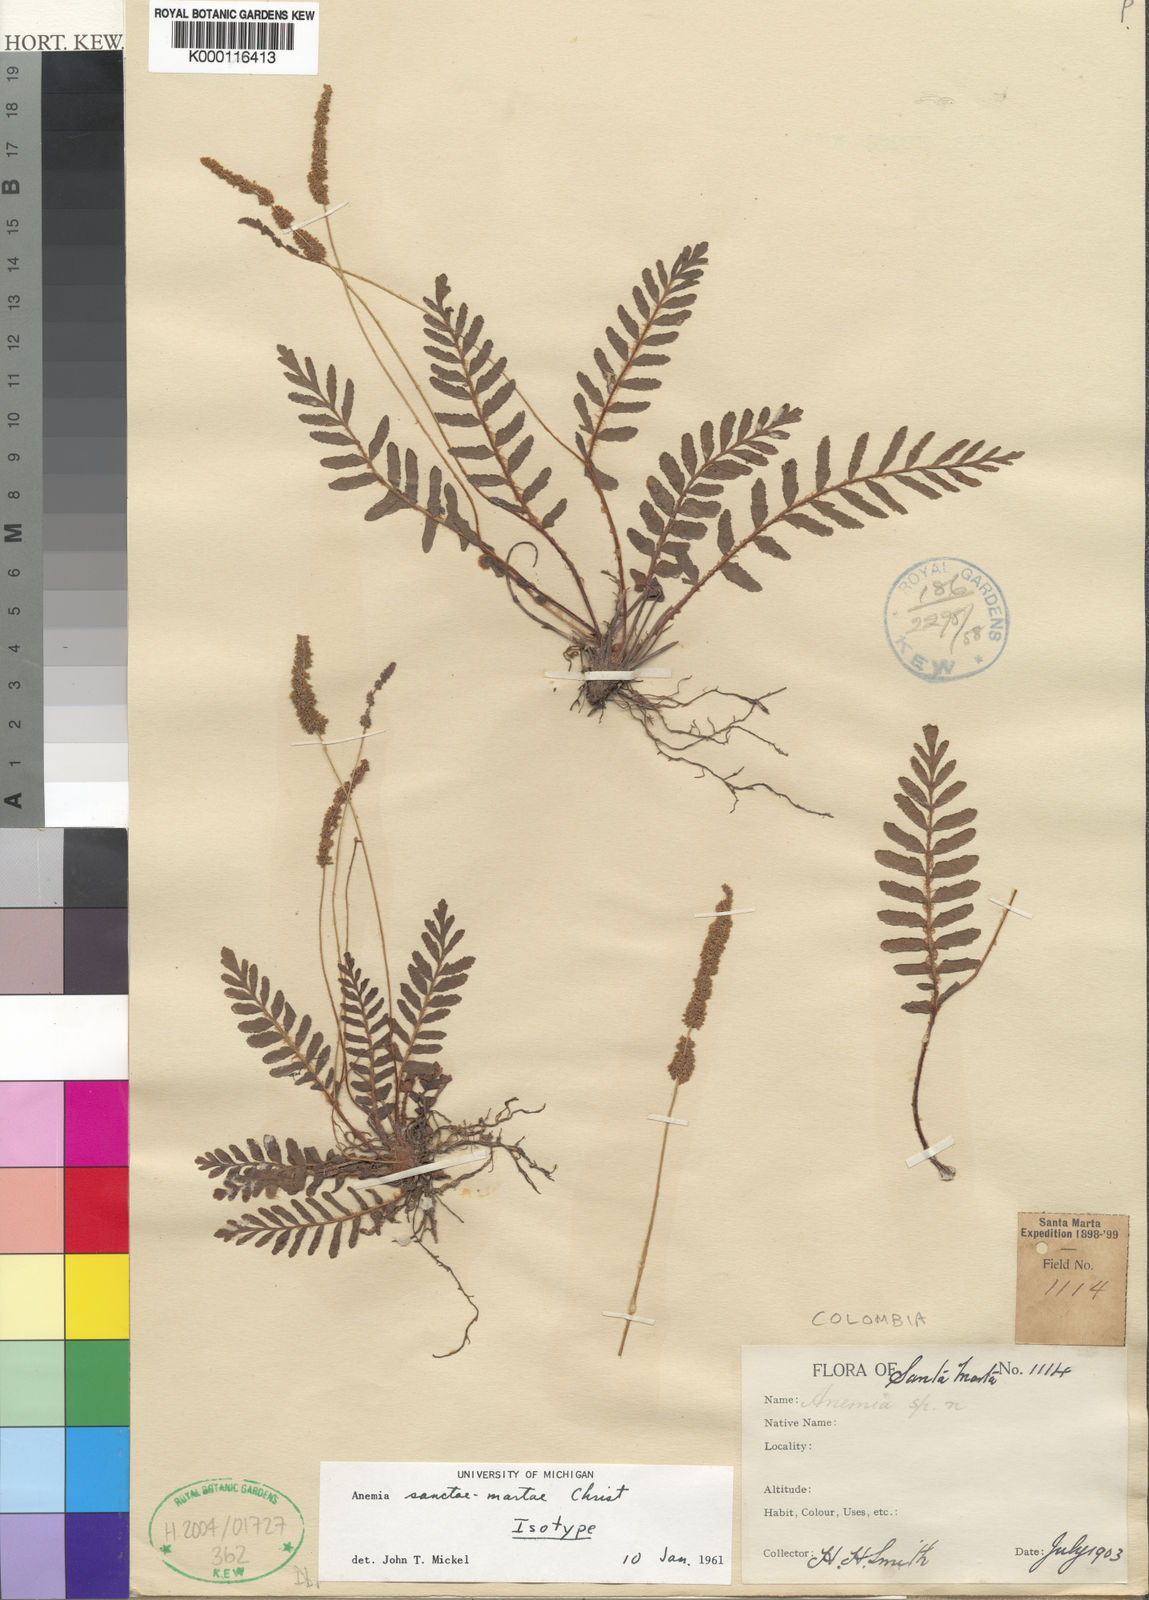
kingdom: Plantae
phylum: Tracheophyta
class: Polypodiopsida
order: Schizaeales
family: Anemiaceae
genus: Anemia
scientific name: Anemia dentata
